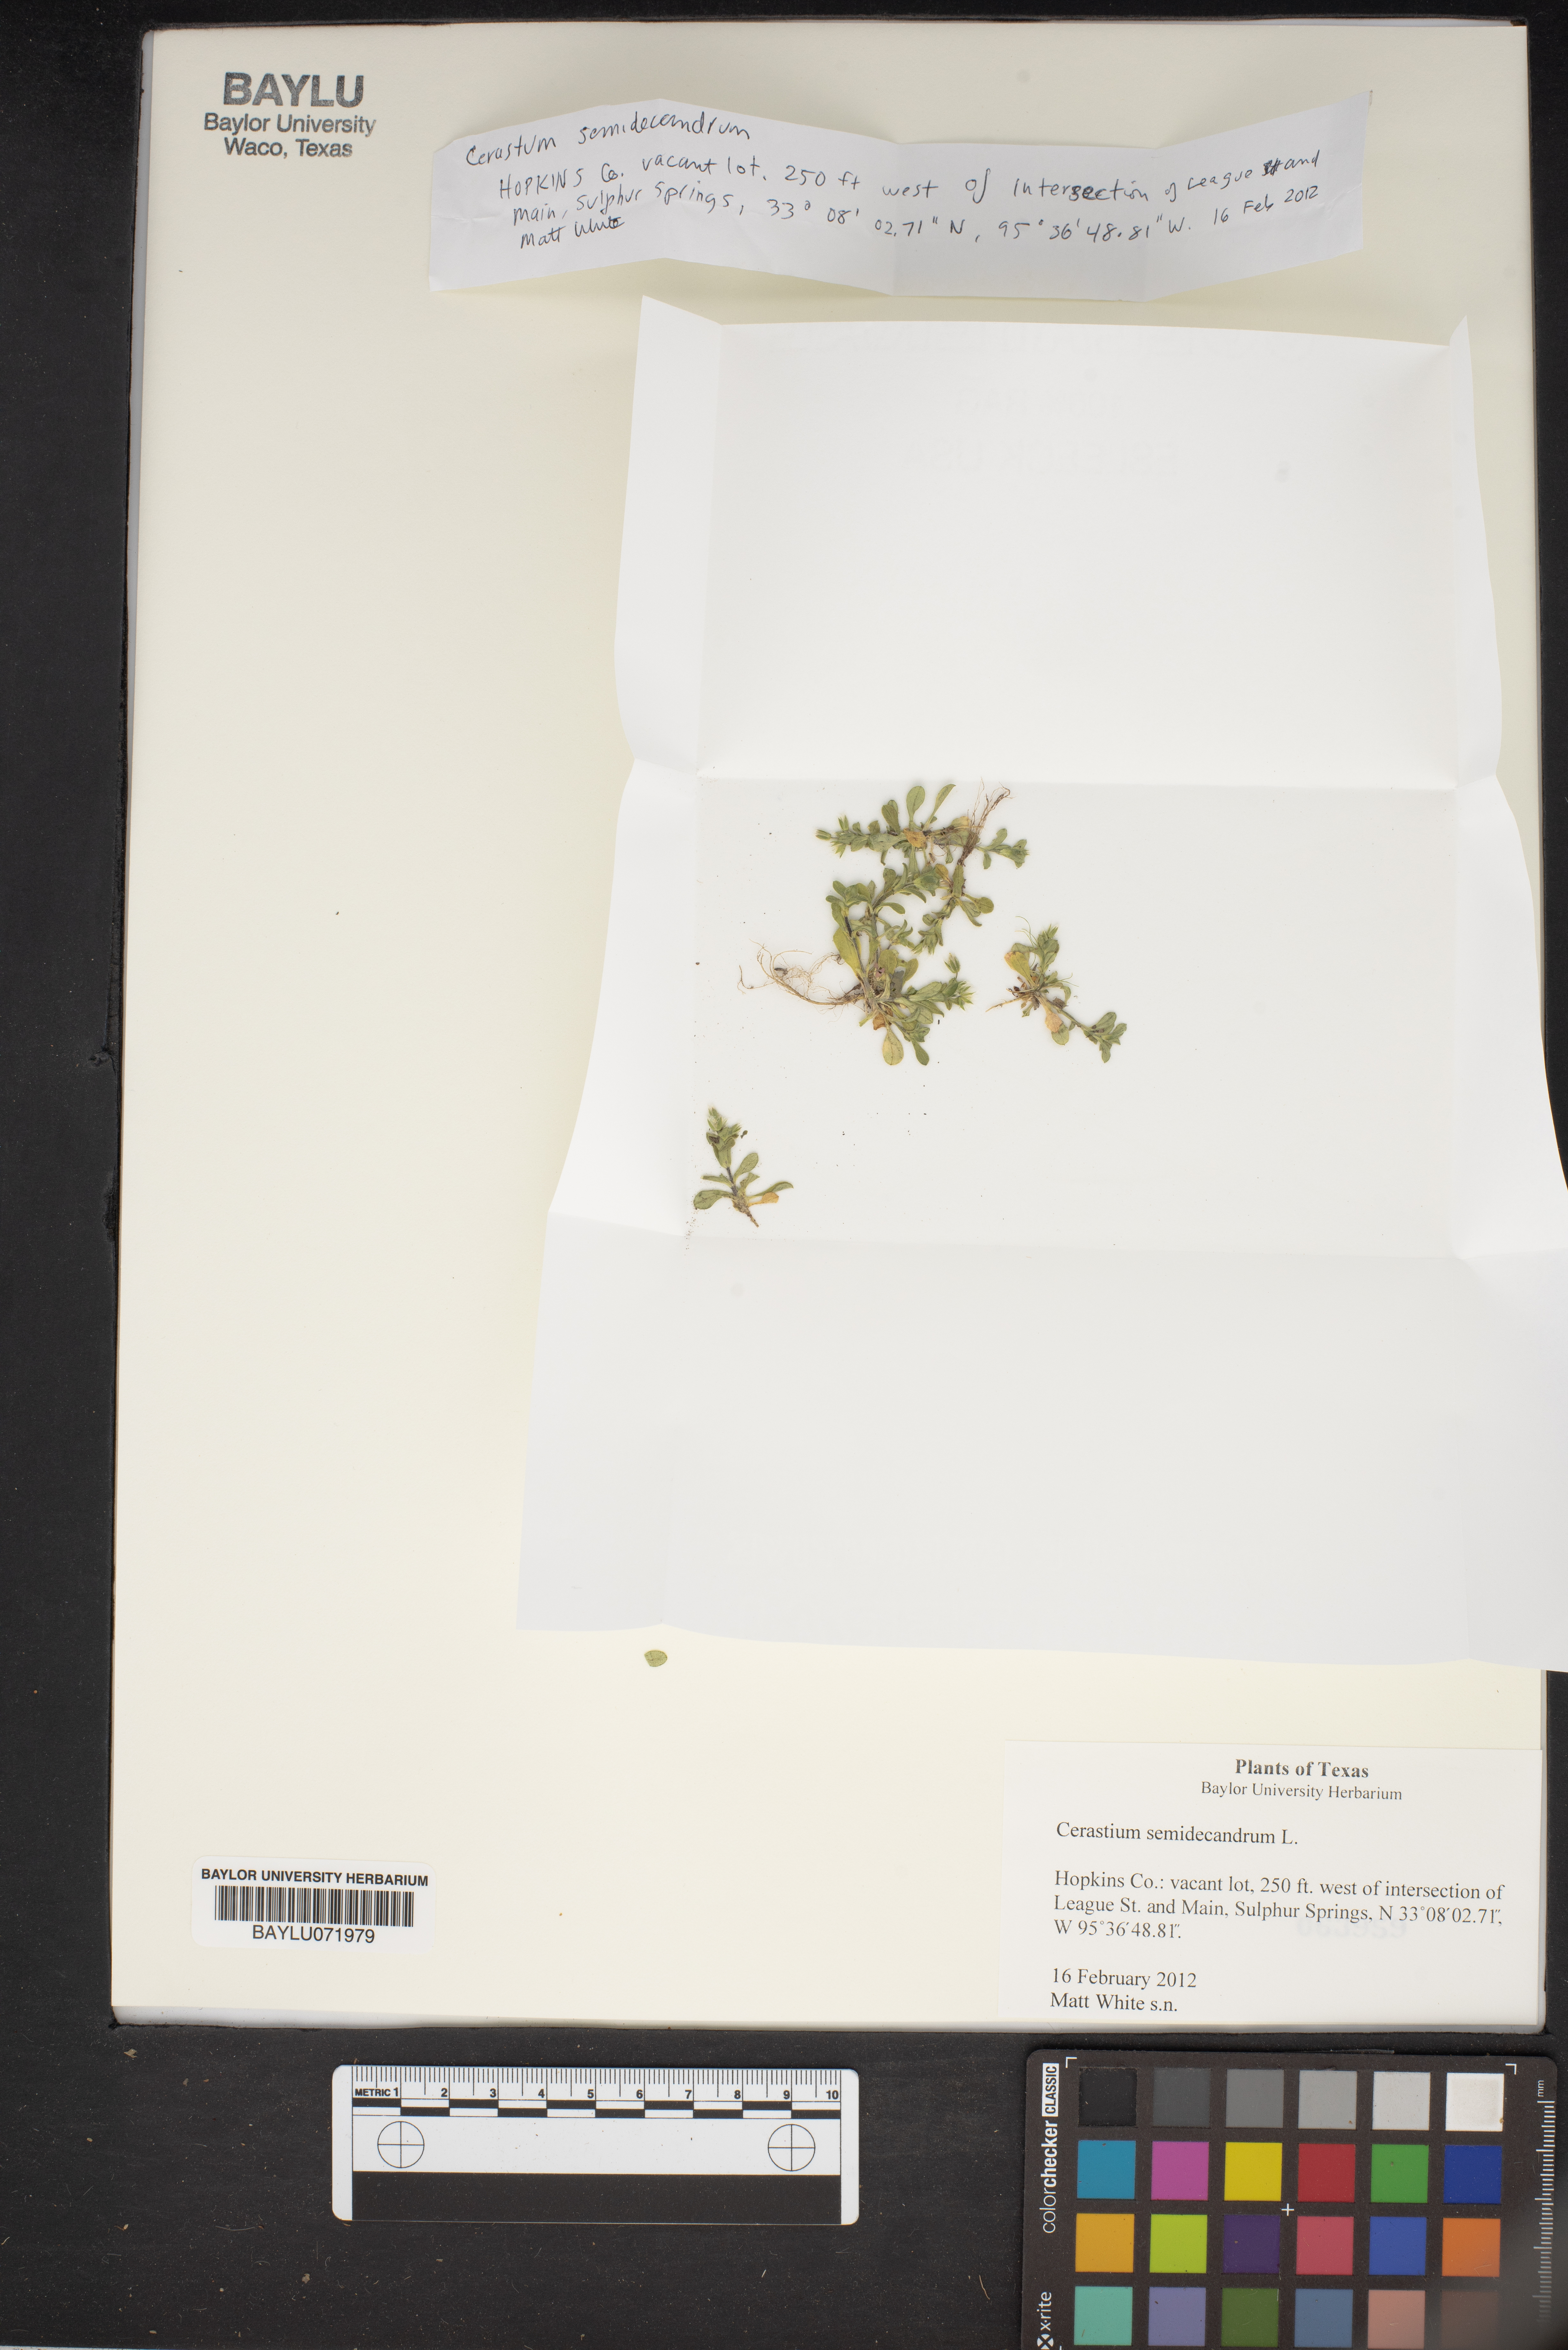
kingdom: Plantae
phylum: Tracheophyta
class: Magnoliopsida
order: Caryophyllales
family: Caryophyllaceae
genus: Cerastium
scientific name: Cerastium semidecandrum
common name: Little mouse-ear
